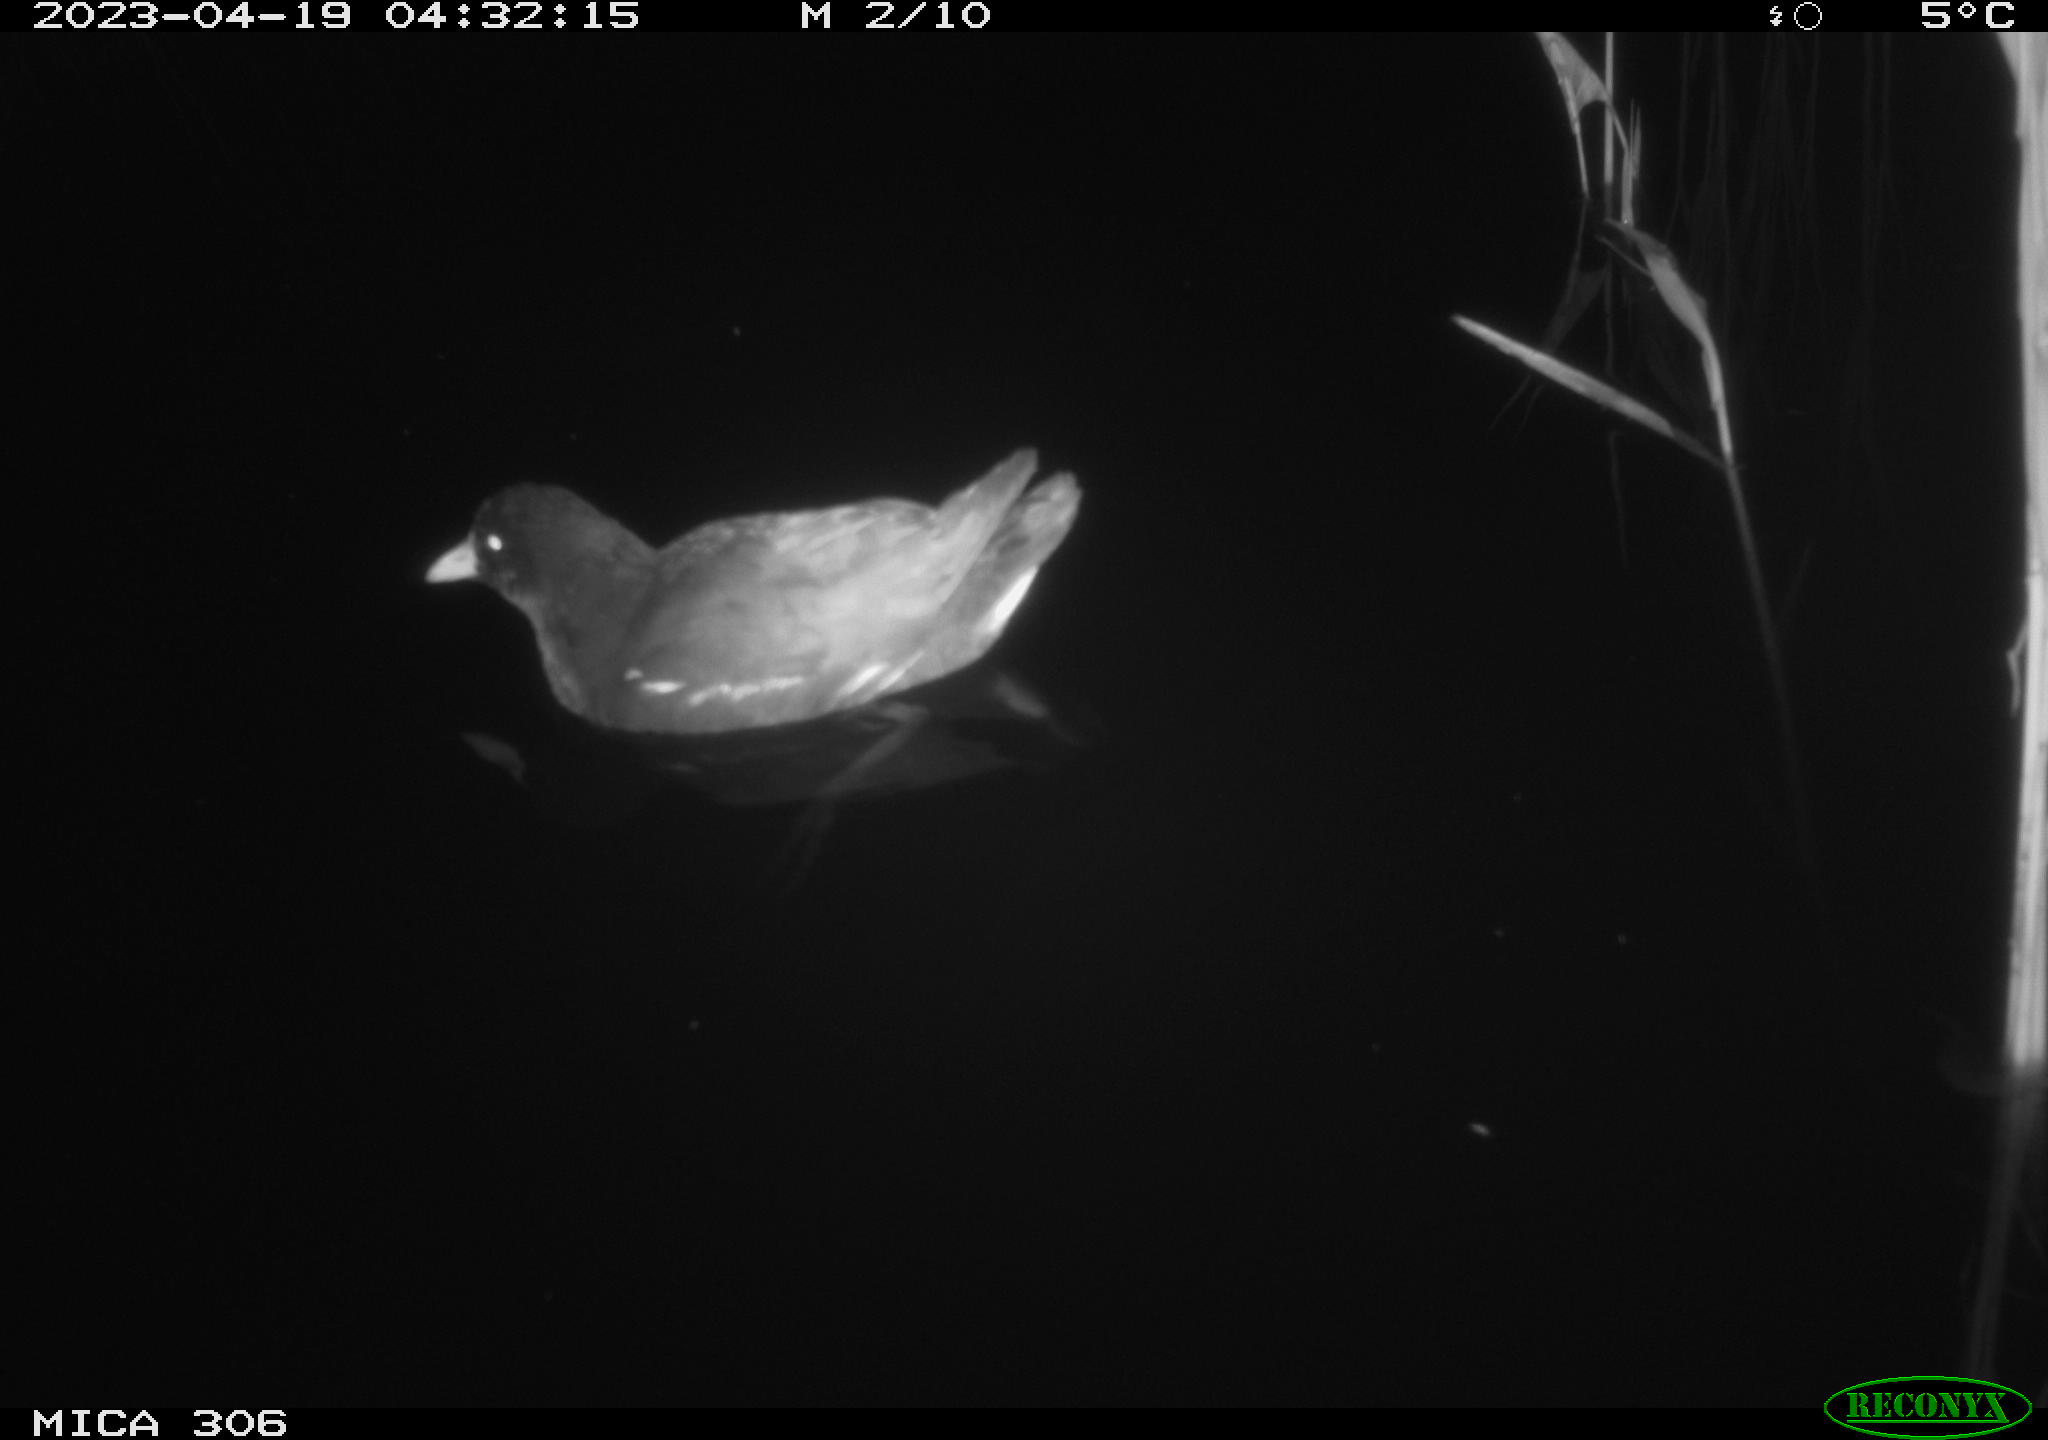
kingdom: Animalia
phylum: Chordata
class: Aves
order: Anseriformes
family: Anatidae
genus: Anas
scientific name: Anas
